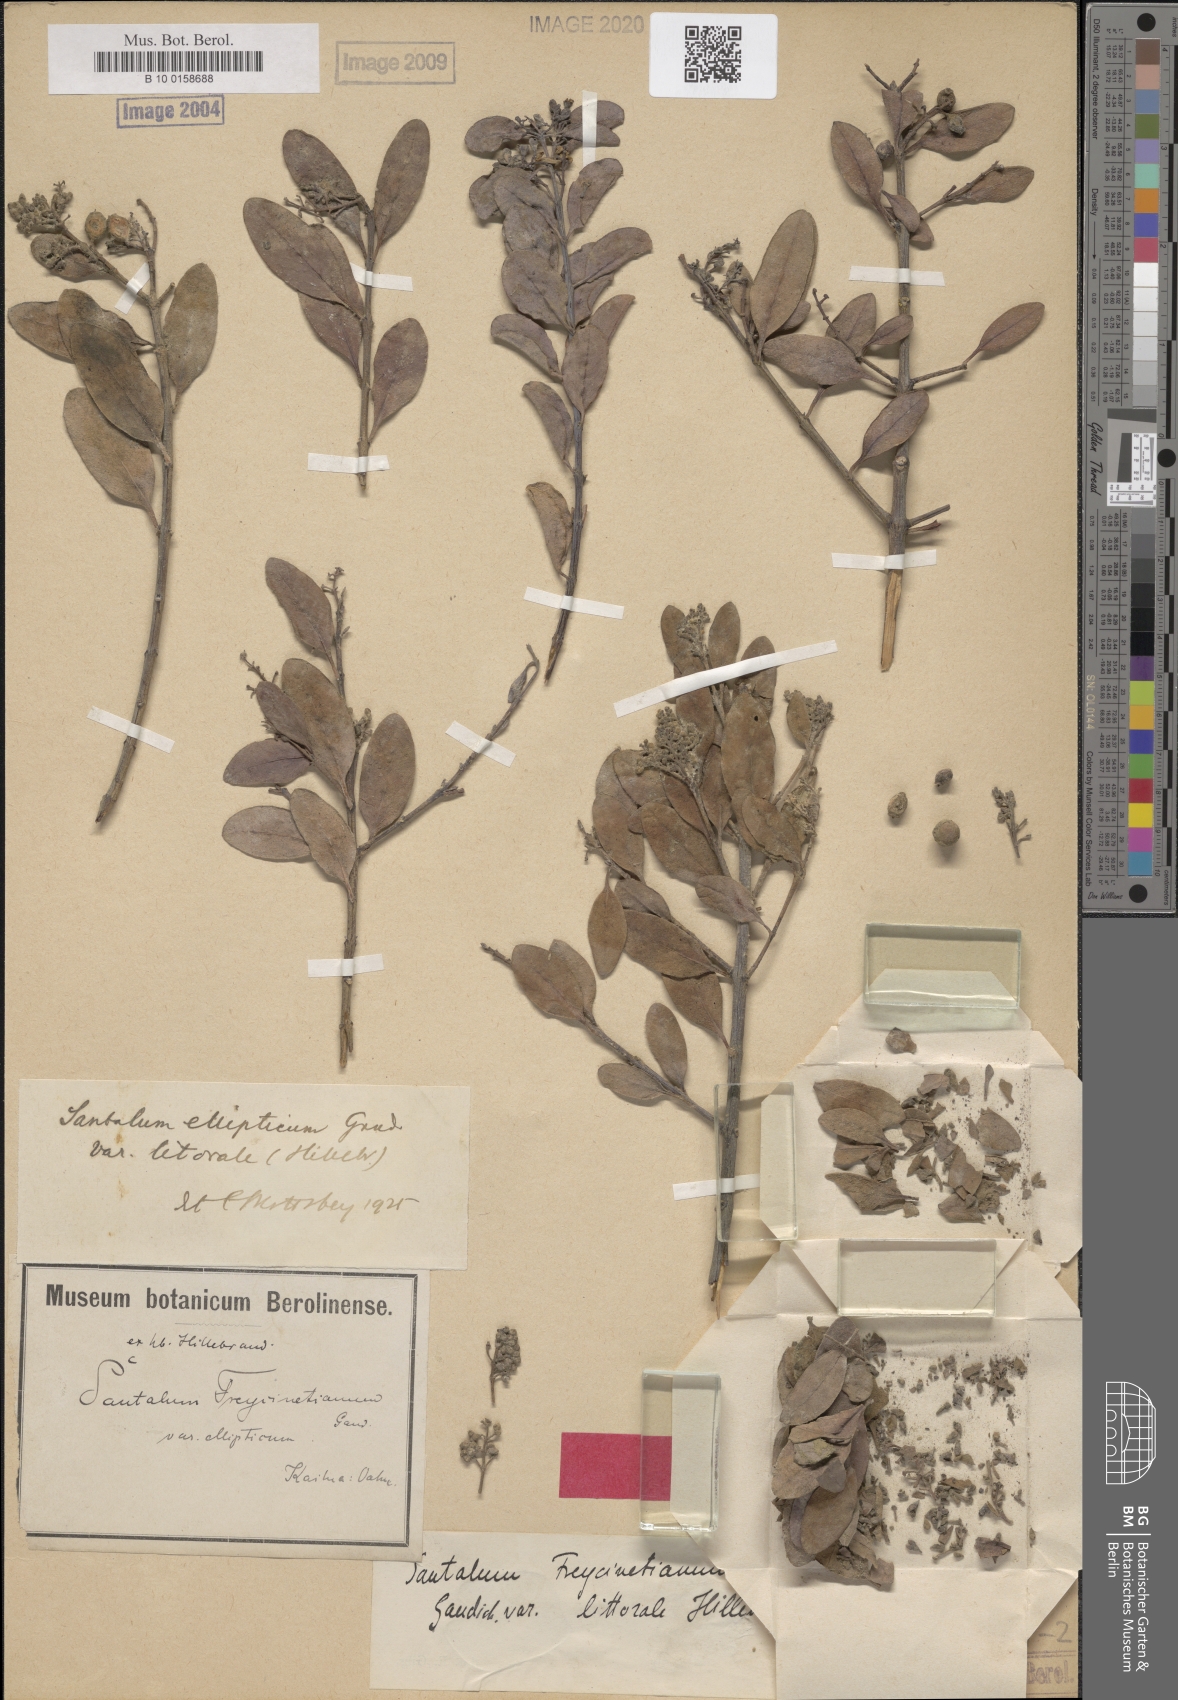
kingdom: Plantae
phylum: Tracheophyta
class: Magnoliopsida
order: Santalales
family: Santalaceae
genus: Santalum
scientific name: Santalum ellipticum
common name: Coast sandalwood
